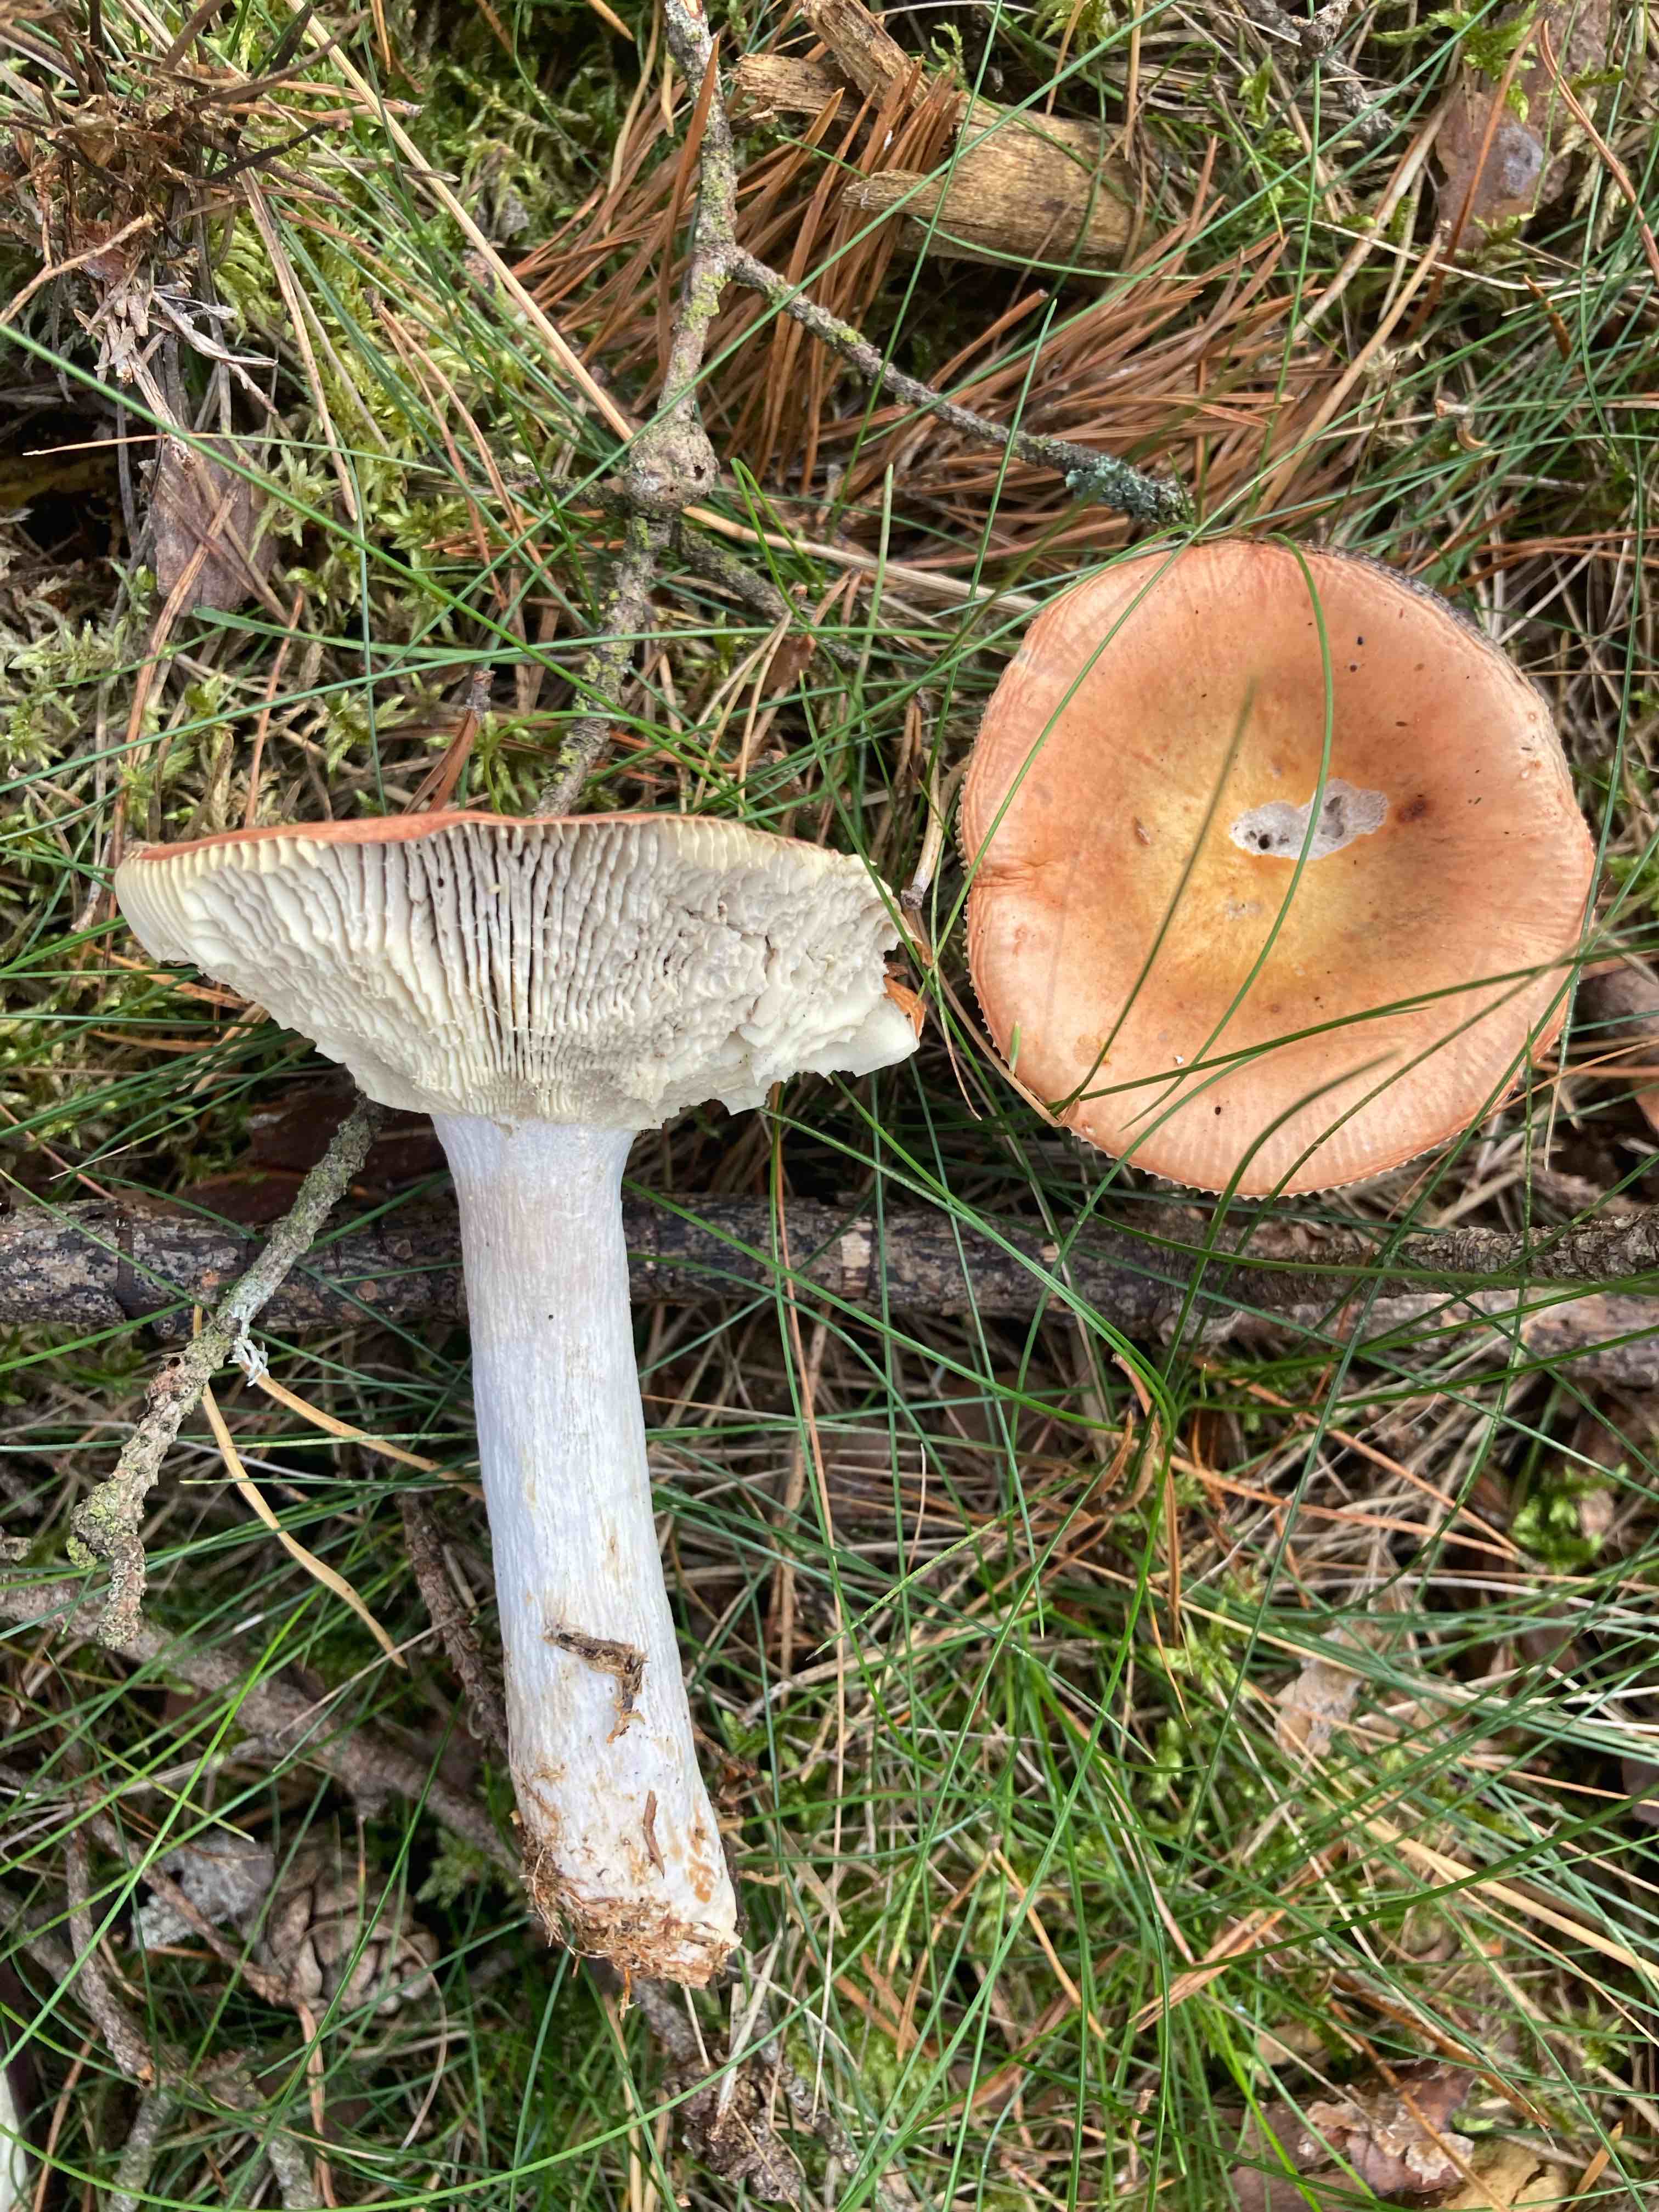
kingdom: Fungi
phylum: Basidiomycota
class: Agaricomycetes
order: Russulales
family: Russulaceae
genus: Russula
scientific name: Russula decolorans
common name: afblegende skørhat
